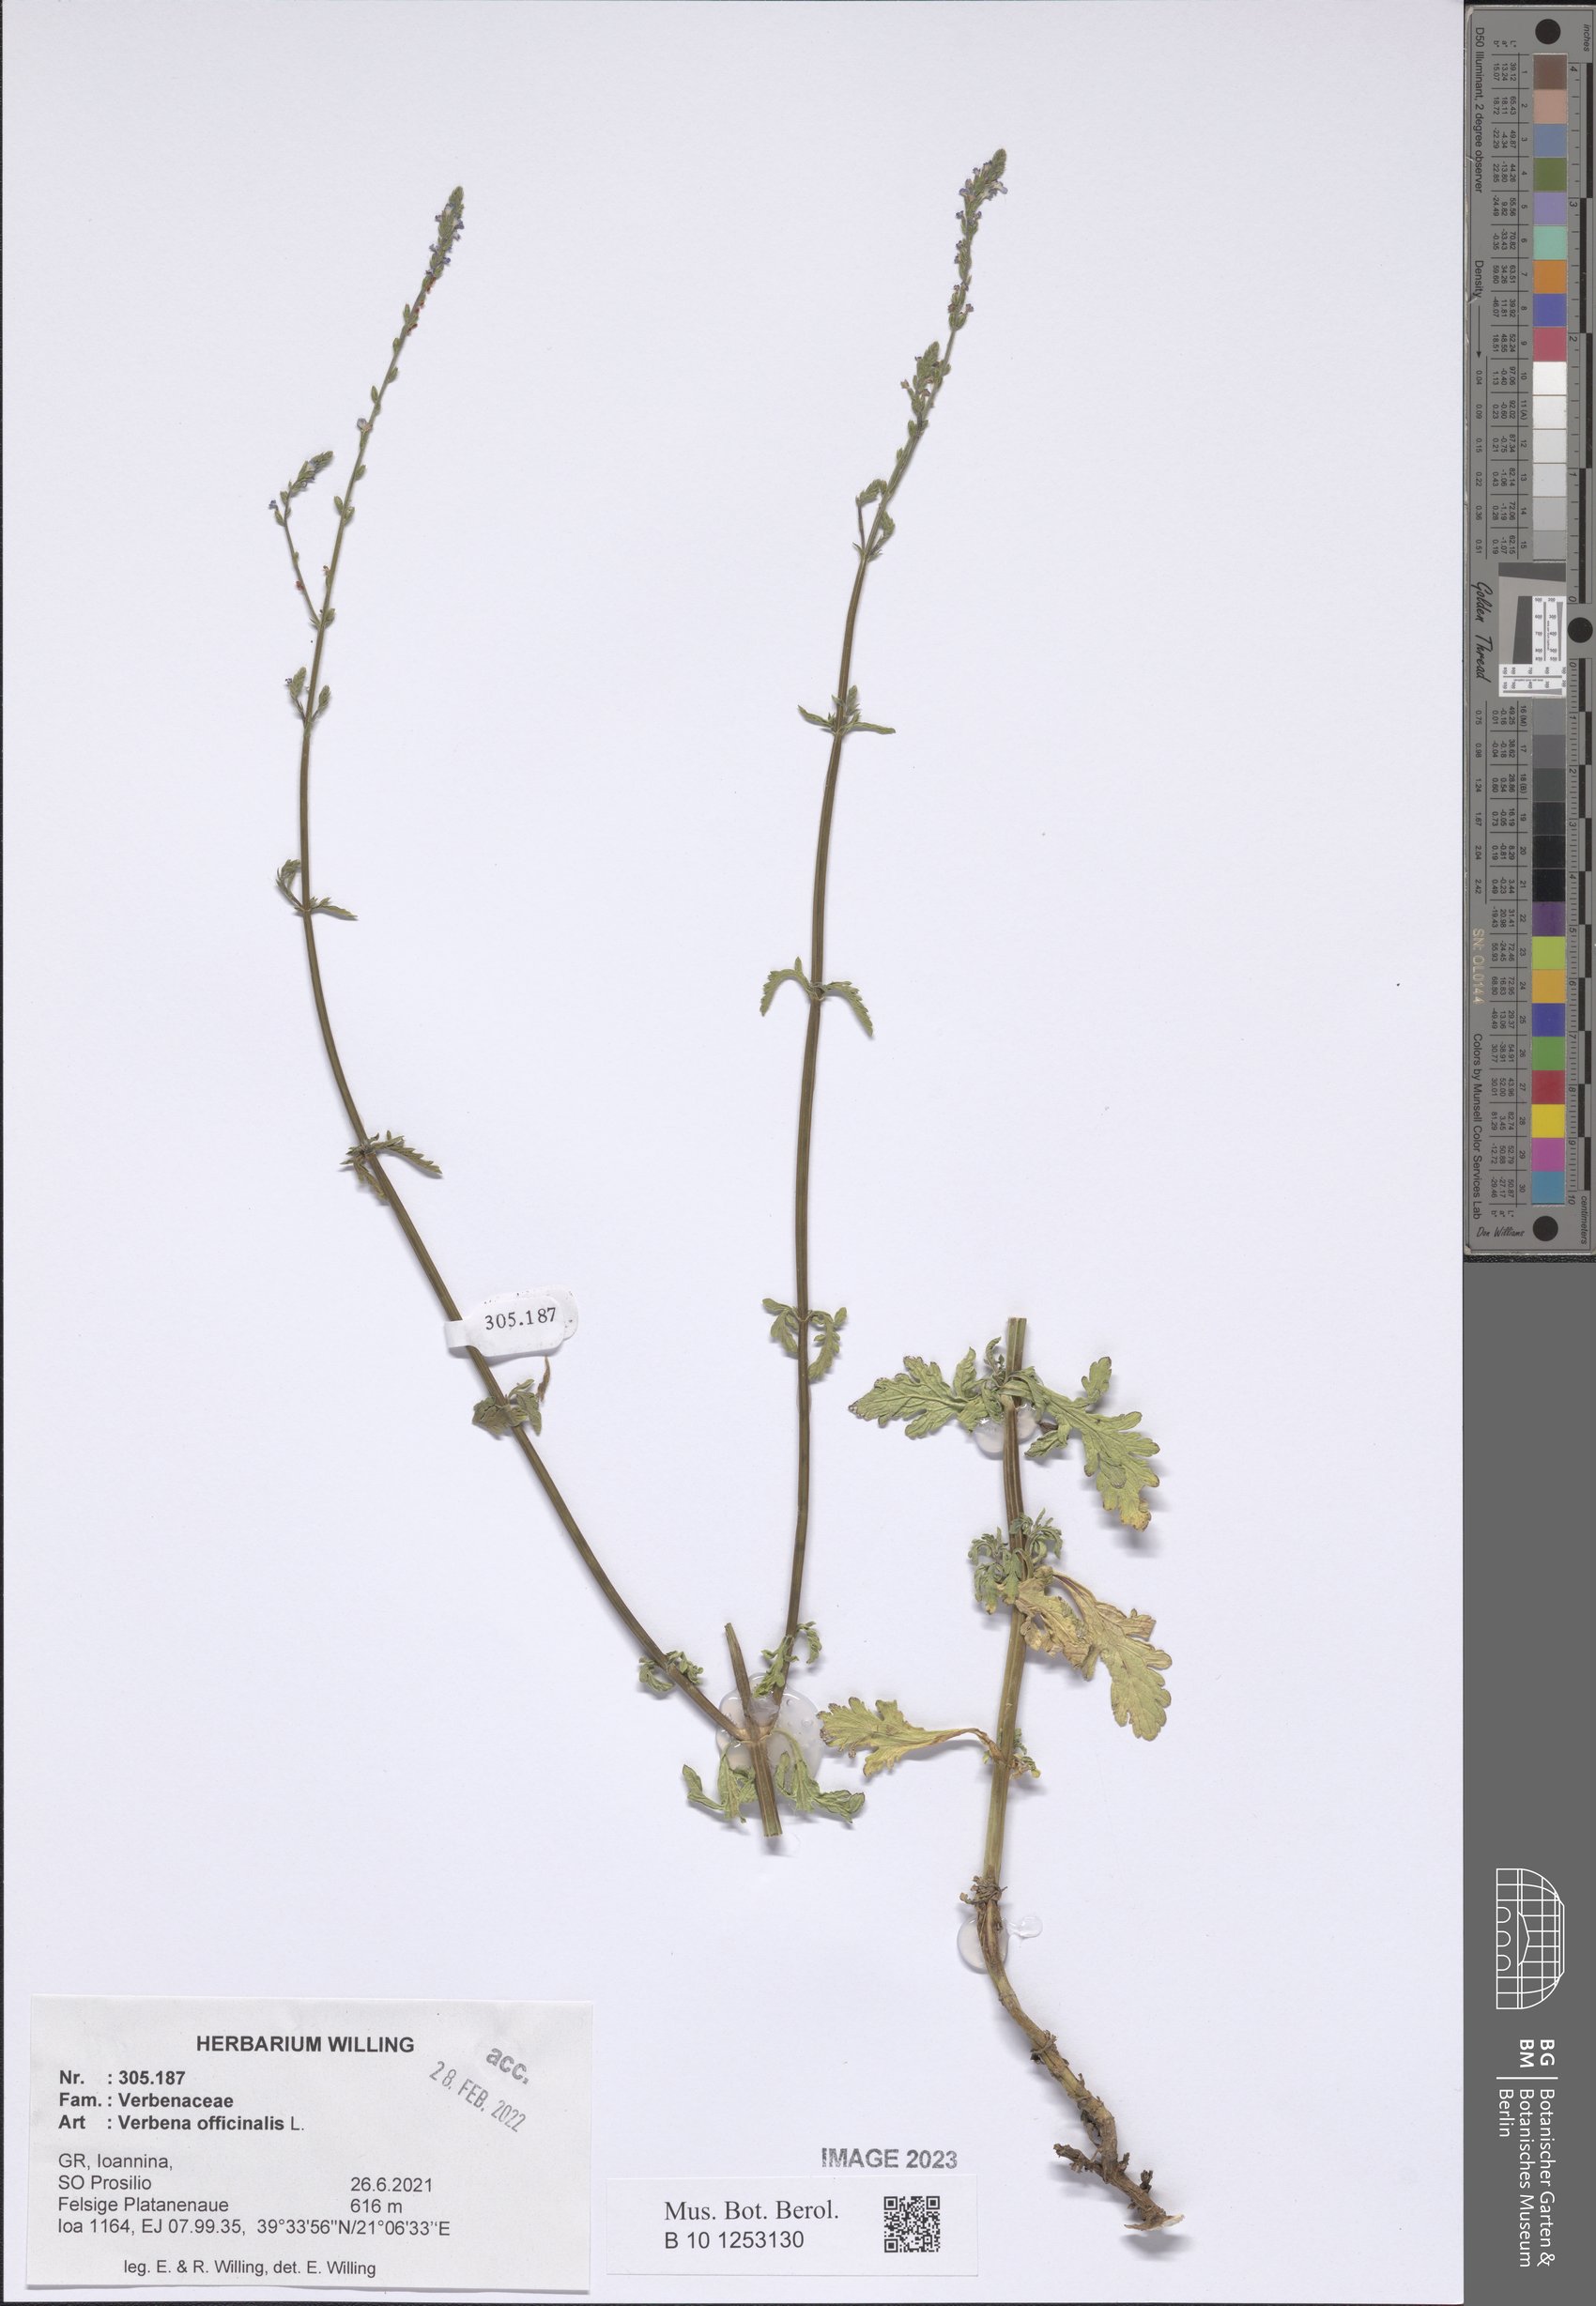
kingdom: Plantae
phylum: Tracheophyta
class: Magnoliopsida
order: Lamiales
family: Verbenaceae
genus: Verbena
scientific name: Verbena officinalis
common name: Vervain
